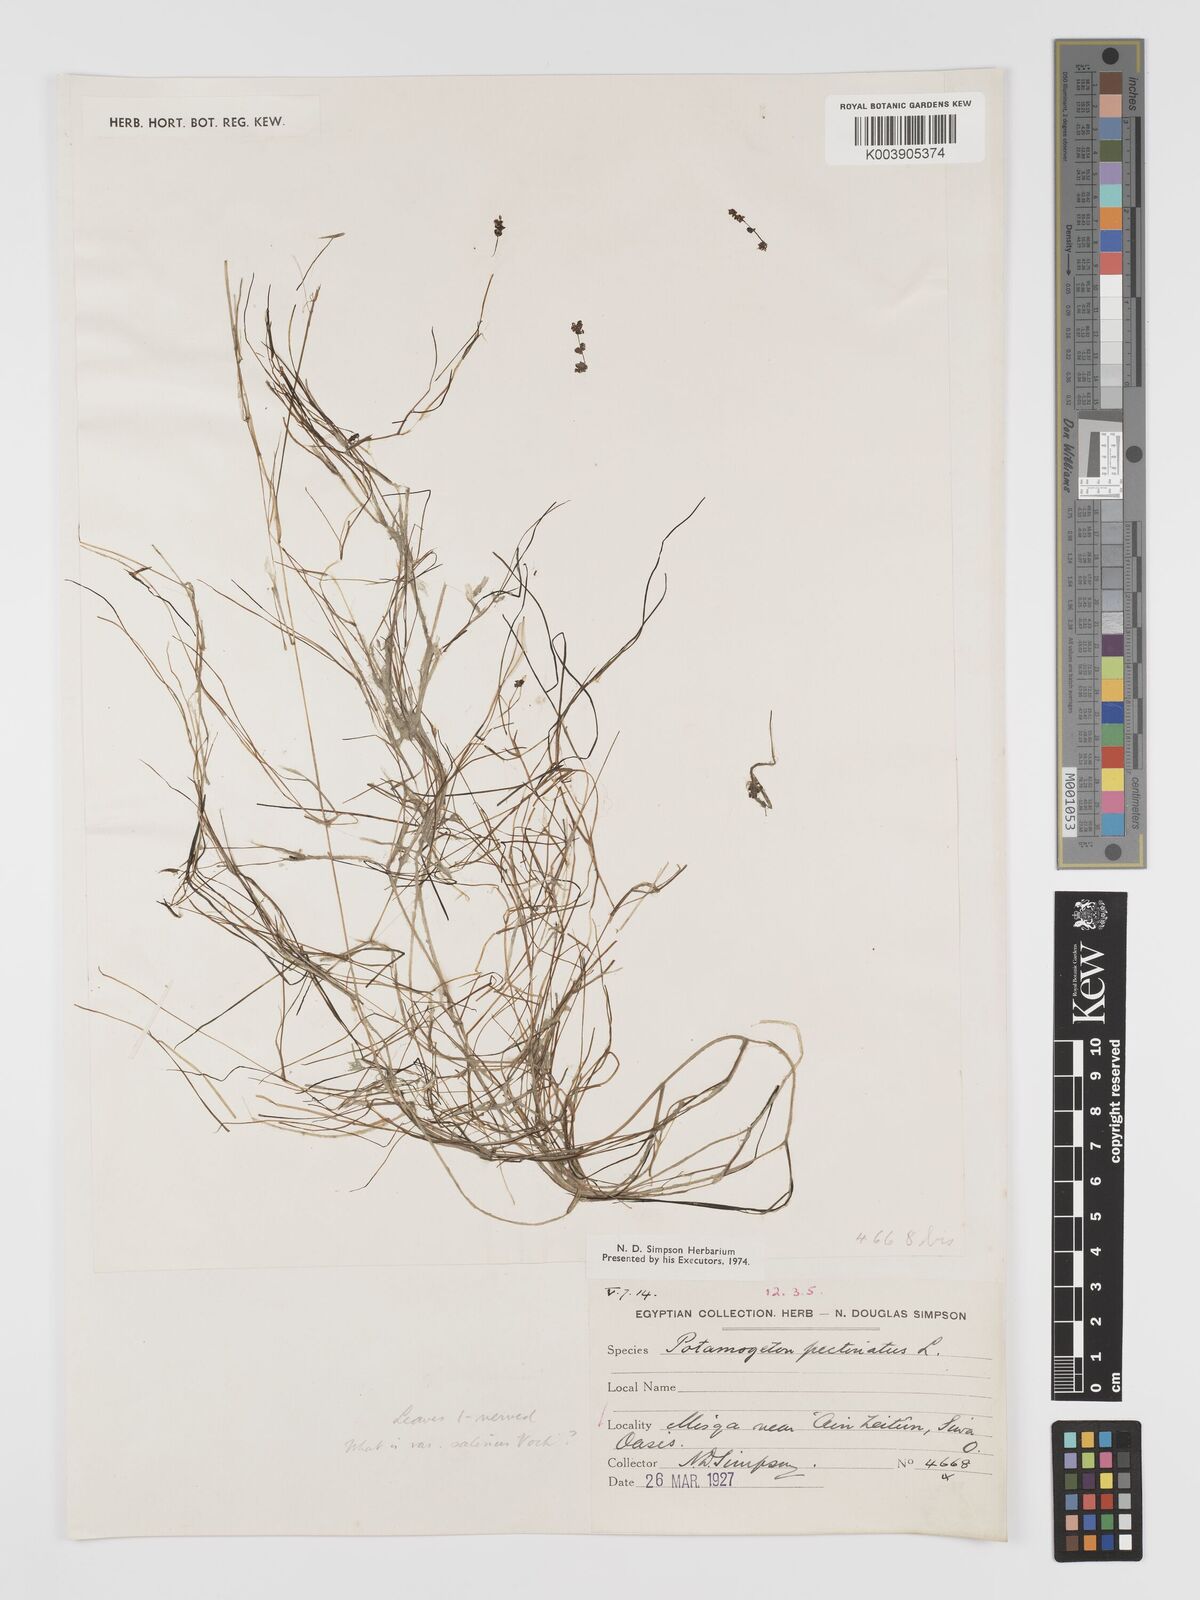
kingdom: Plantae
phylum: Tracheophyta
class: Liliopsida
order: Alismatales
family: Potamogetonaceae
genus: Stuckenia
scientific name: Stuckenia pectinata
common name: Sago pondweed
